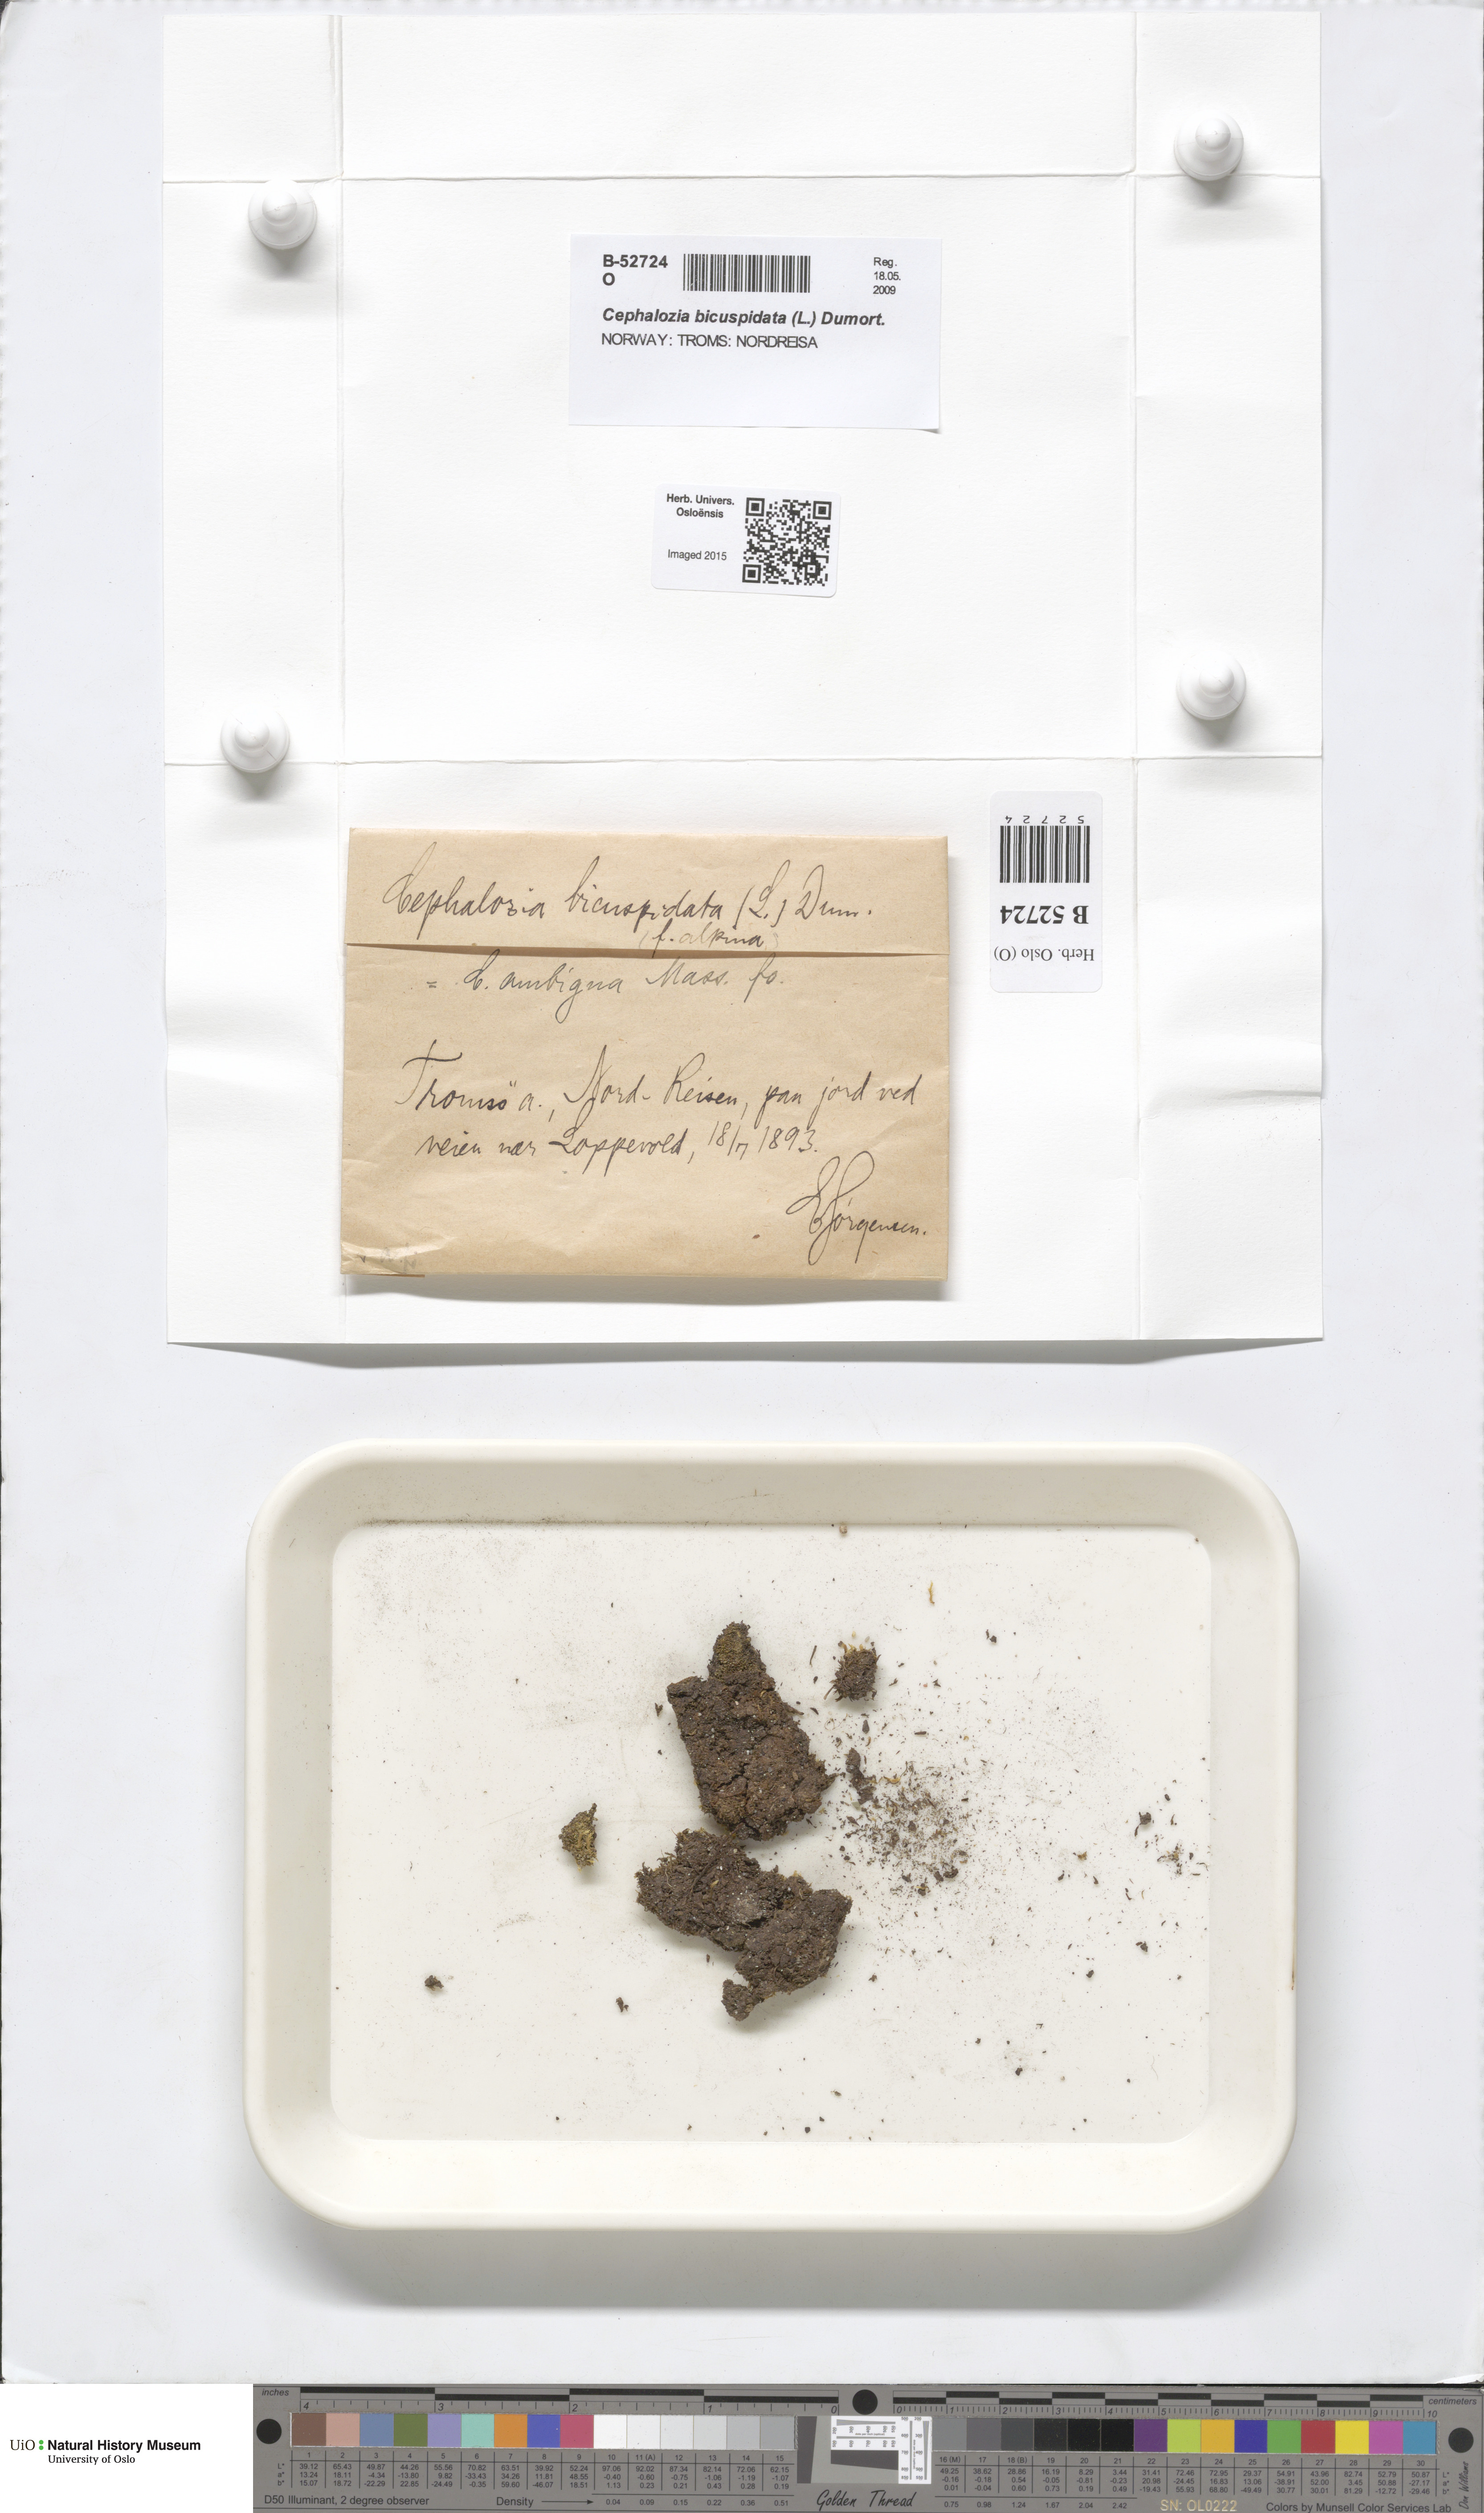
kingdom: Plantae
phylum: Marchantiophyta
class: Jungermanniopsida
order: Jungermanniales
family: Cephaloziaceae
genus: Cephalozia
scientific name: Cephalozia bicuspidata
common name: Two-horned pincerwort
